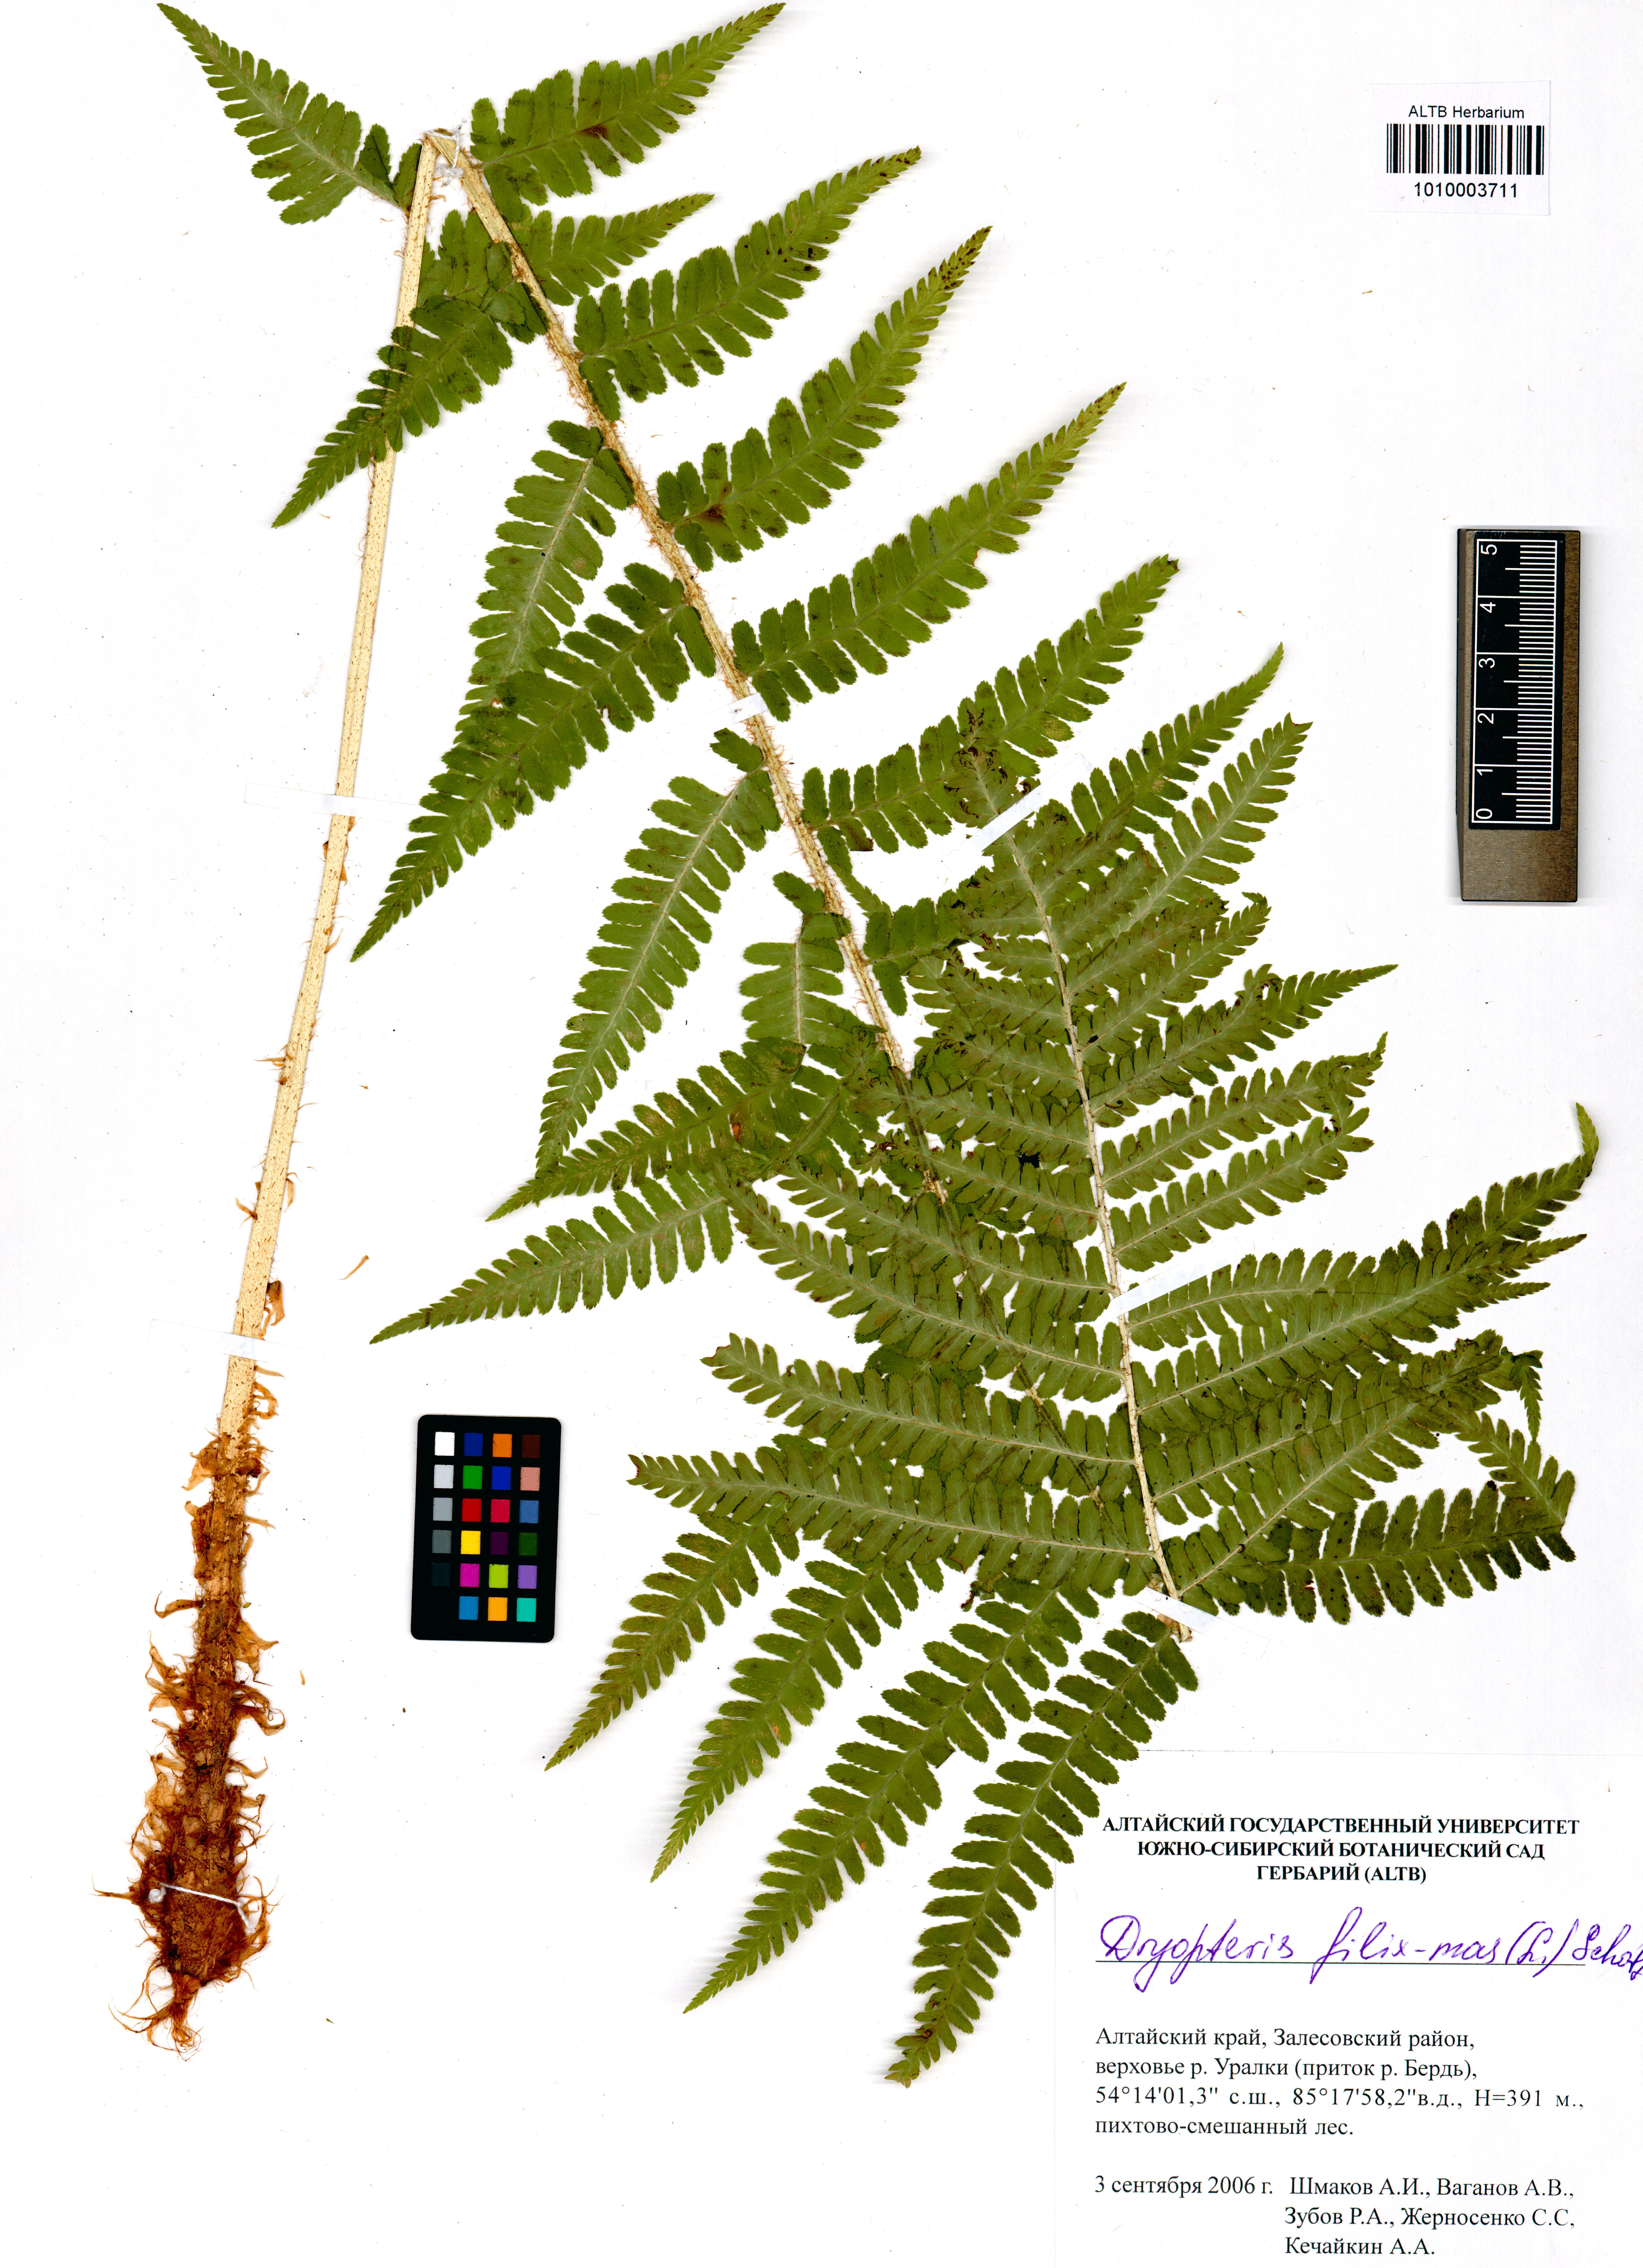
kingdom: Plantae
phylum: Tracheophyta
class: Polypodiopsida
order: Polypodiales
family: Dryopteridaceae
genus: Dryopteris
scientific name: Dryopteris filix-mas
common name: Male fern
